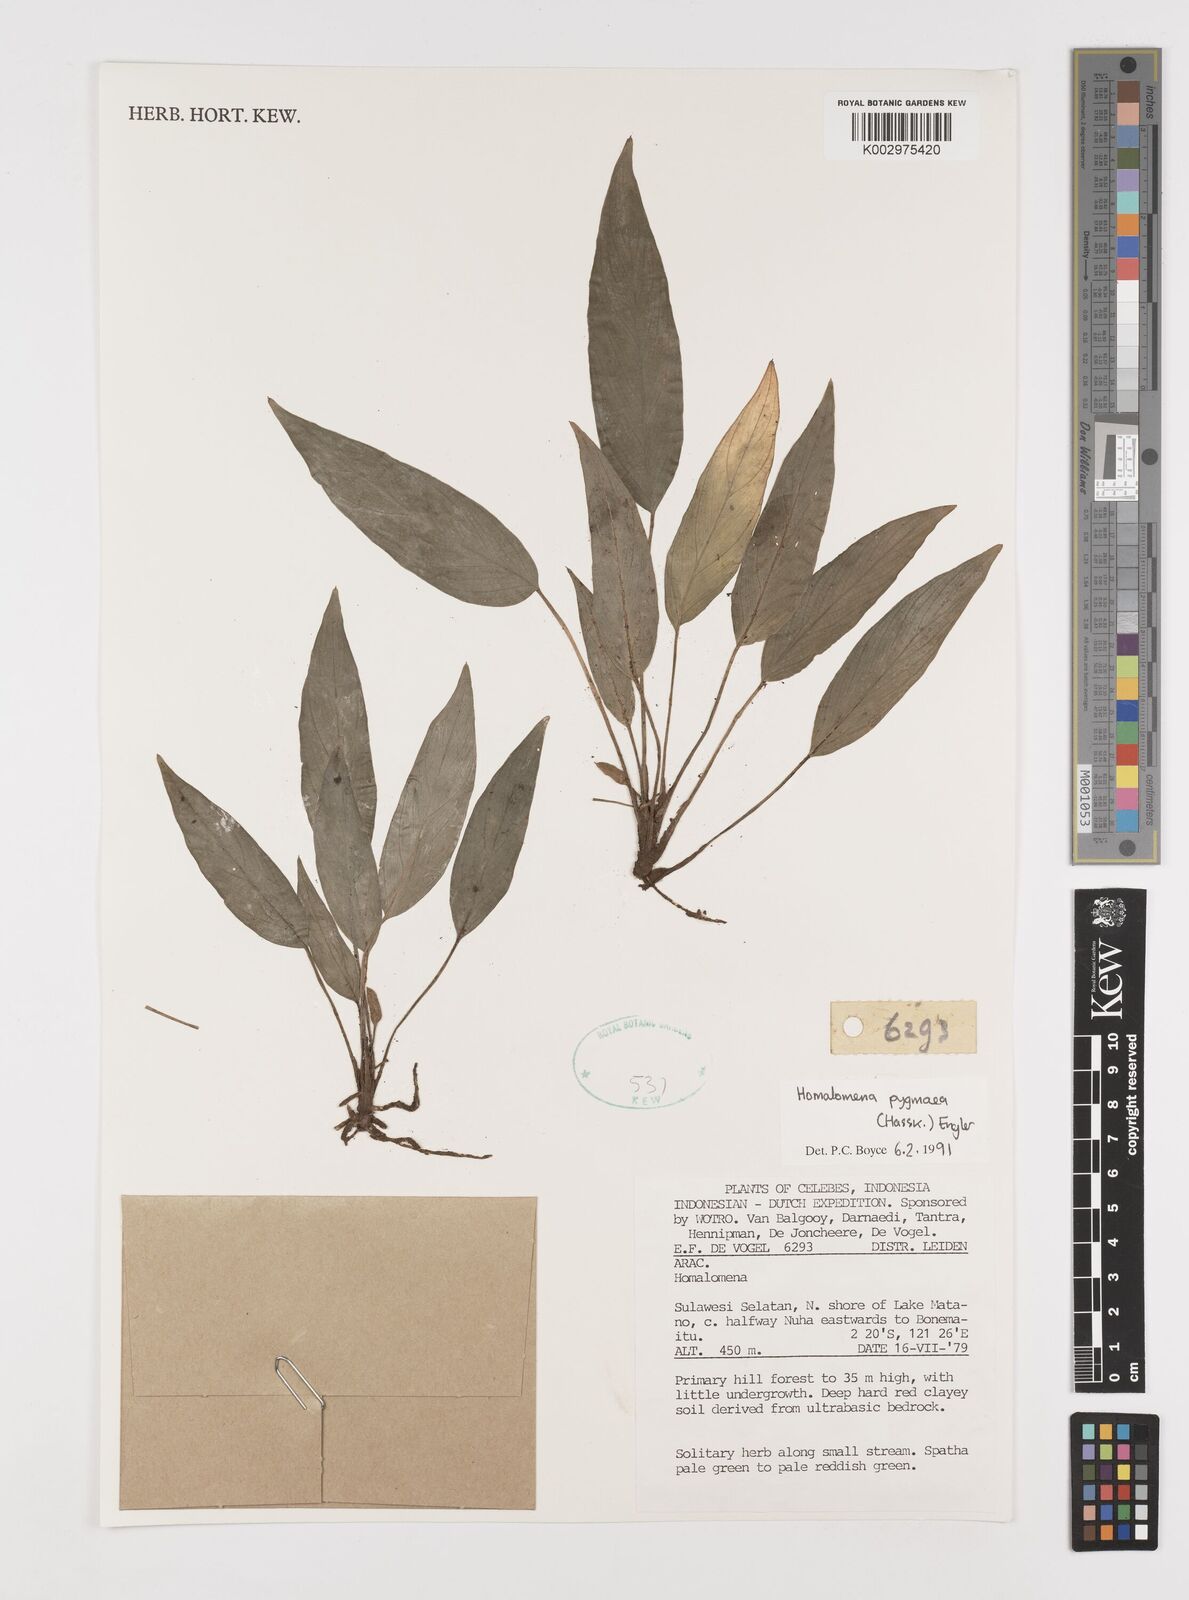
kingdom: Plantae
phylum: Tracheophyta
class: Liliopsida
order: Alismatales
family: Araceae
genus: Homalomena
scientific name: Homalomena humilis
